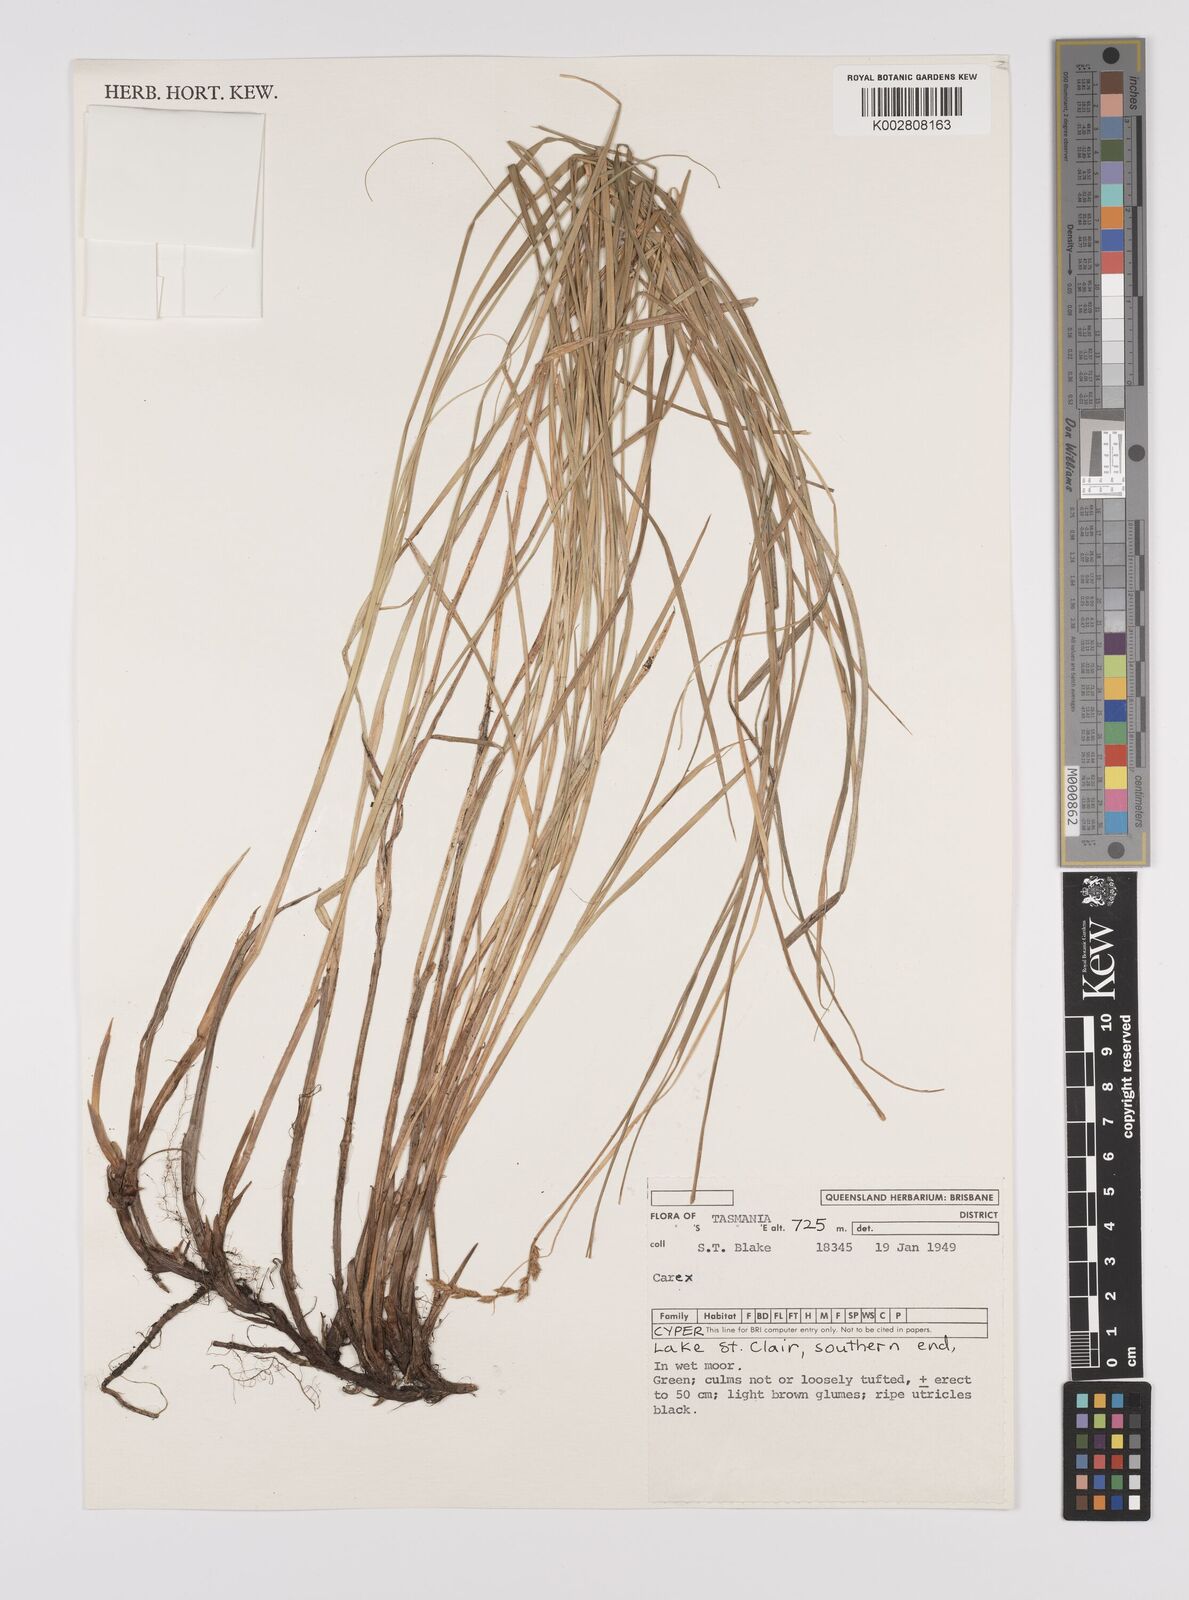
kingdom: Plantae
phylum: Tracheophyta
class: Liliopsida
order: Poales
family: Cyperaceae
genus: Carex
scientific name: Carex diandra
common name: Lesser tussock-sedge
